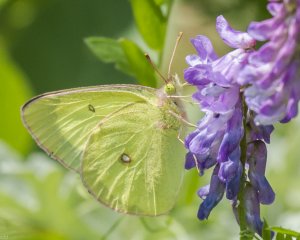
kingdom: Animalia
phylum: Arthropoda
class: Insecta
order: Lepidoptera
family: Pieridae
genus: Colias
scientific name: Colias interior
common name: Pink-edged Sulphur
